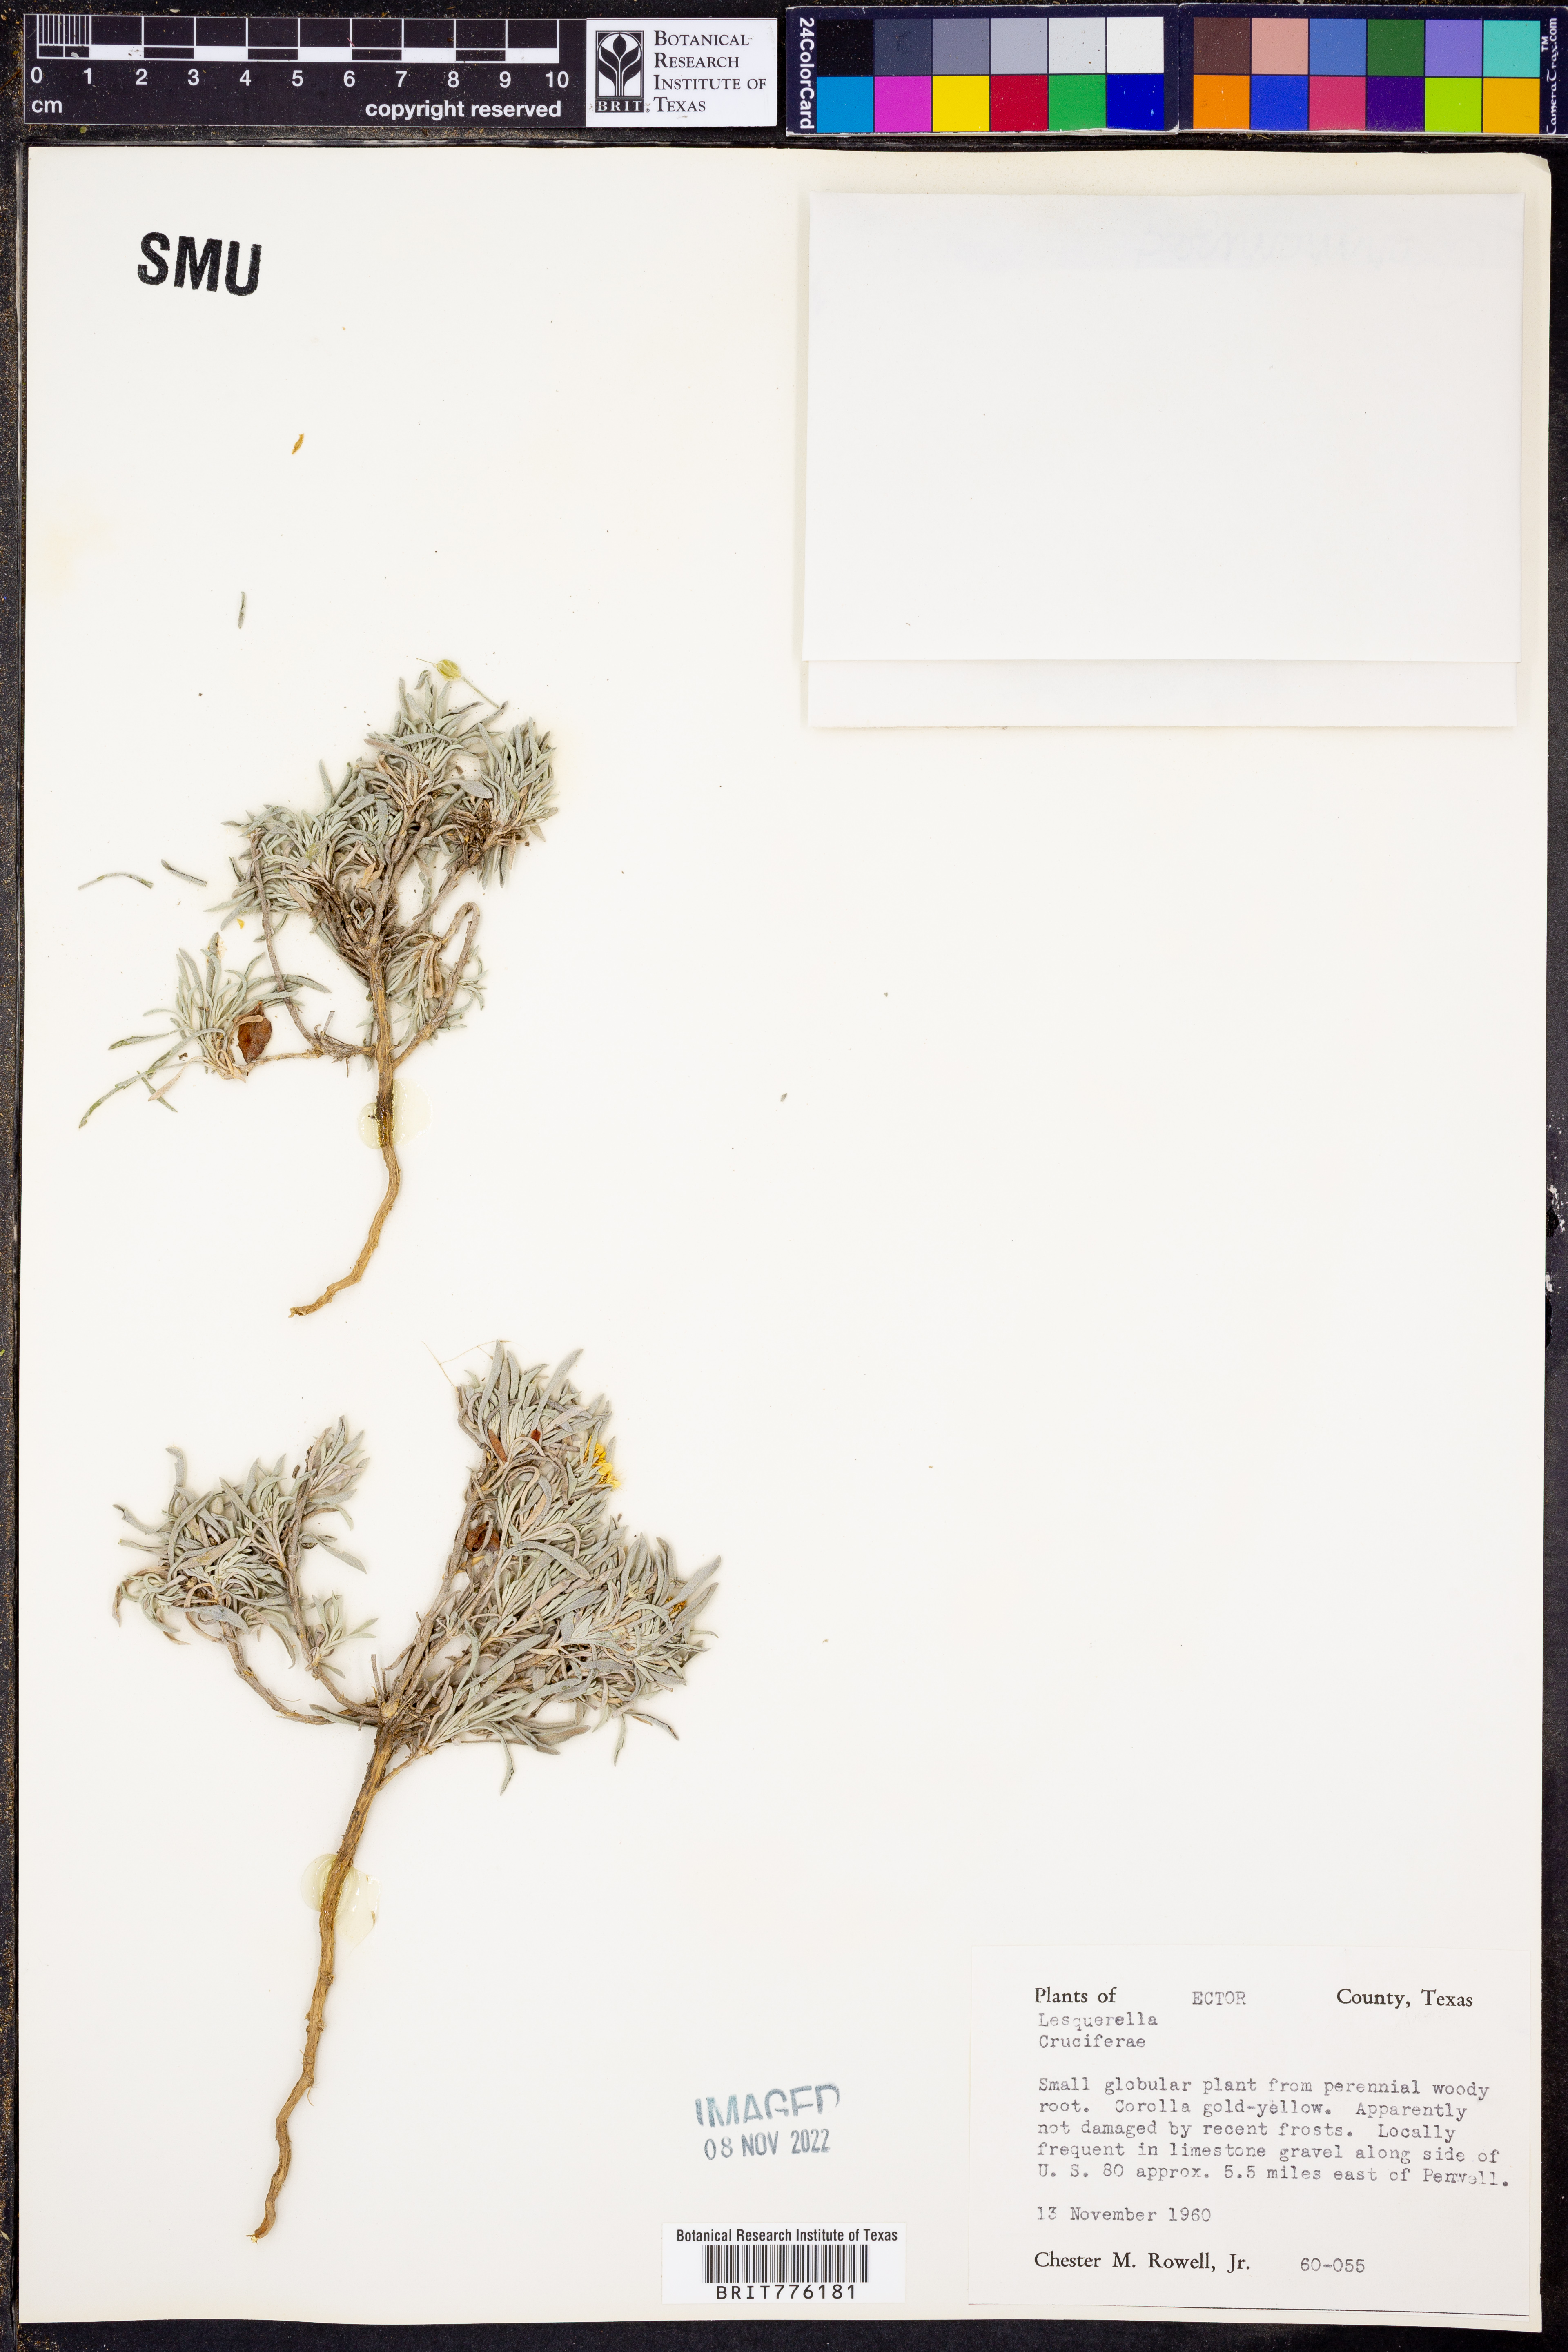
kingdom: Chromista
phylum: Cercozoa
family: Psammonobiotidae
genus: Lesquerella
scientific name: Lesquerella
